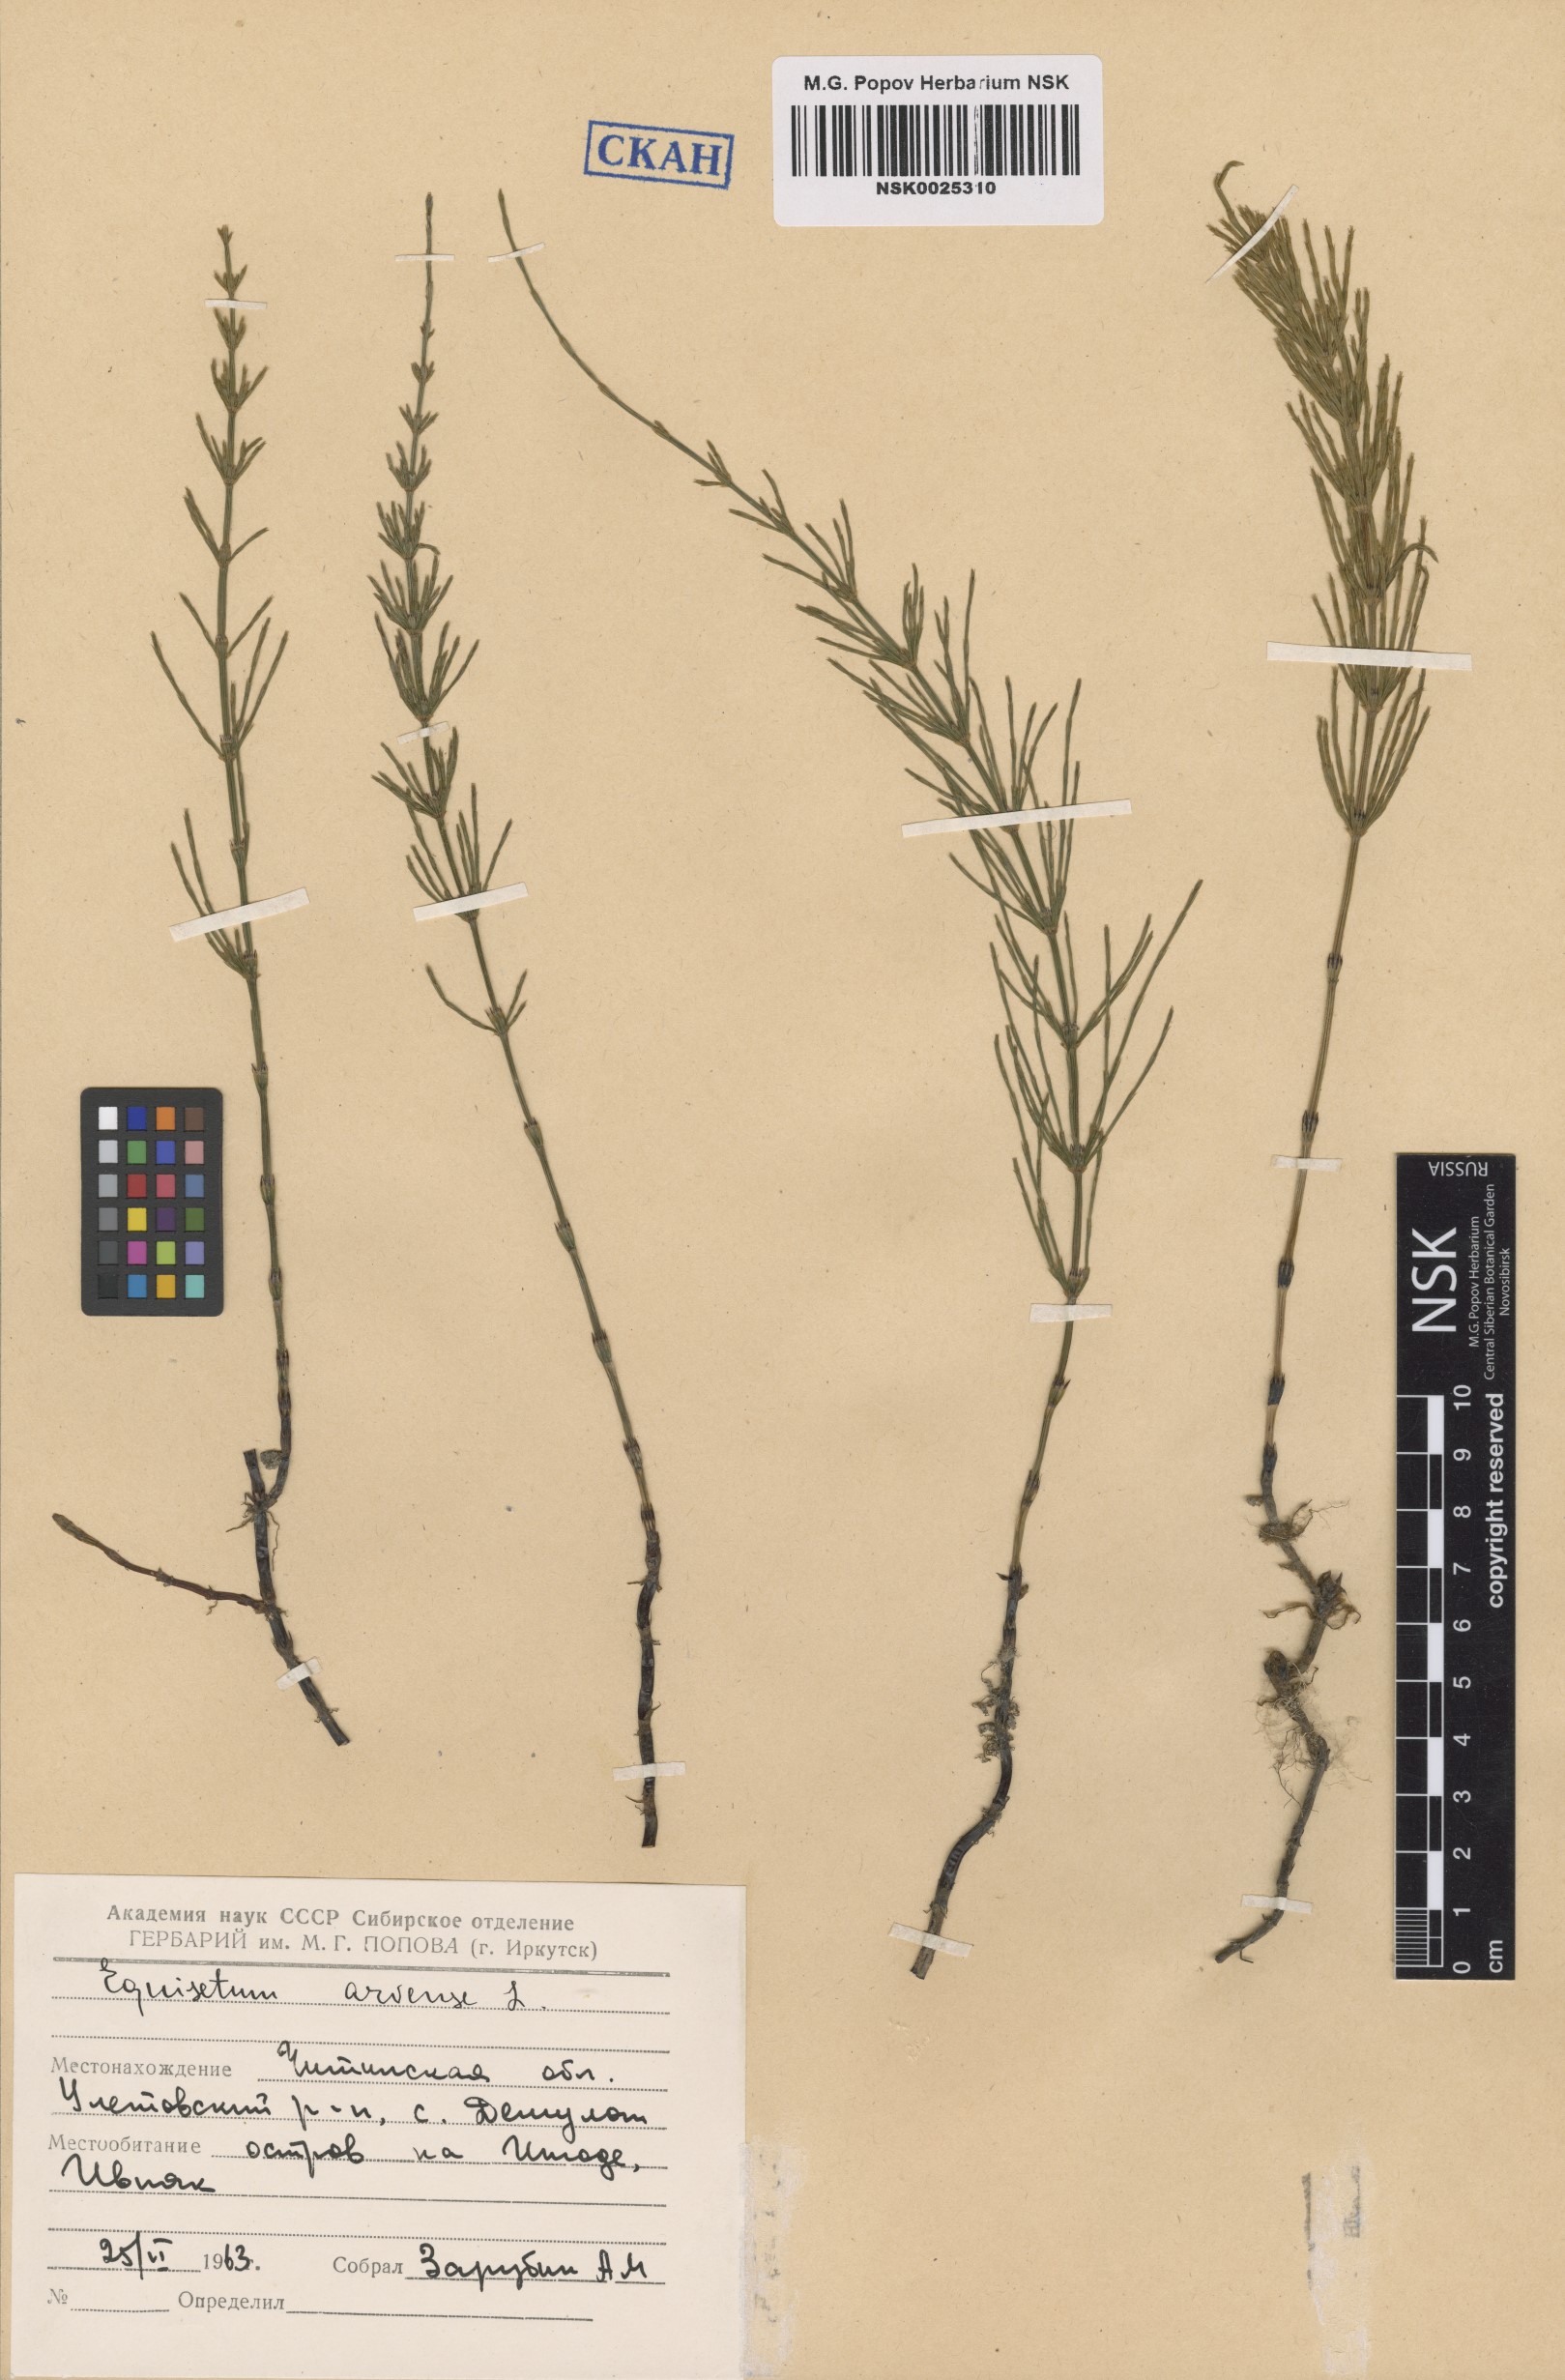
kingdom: Plantae
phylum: Tracheophyta
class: Polypodiopsida
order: Equisetales
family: Equisetaceae
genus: Equisetum
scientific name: Equisetum arvense
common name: Field horsetail
